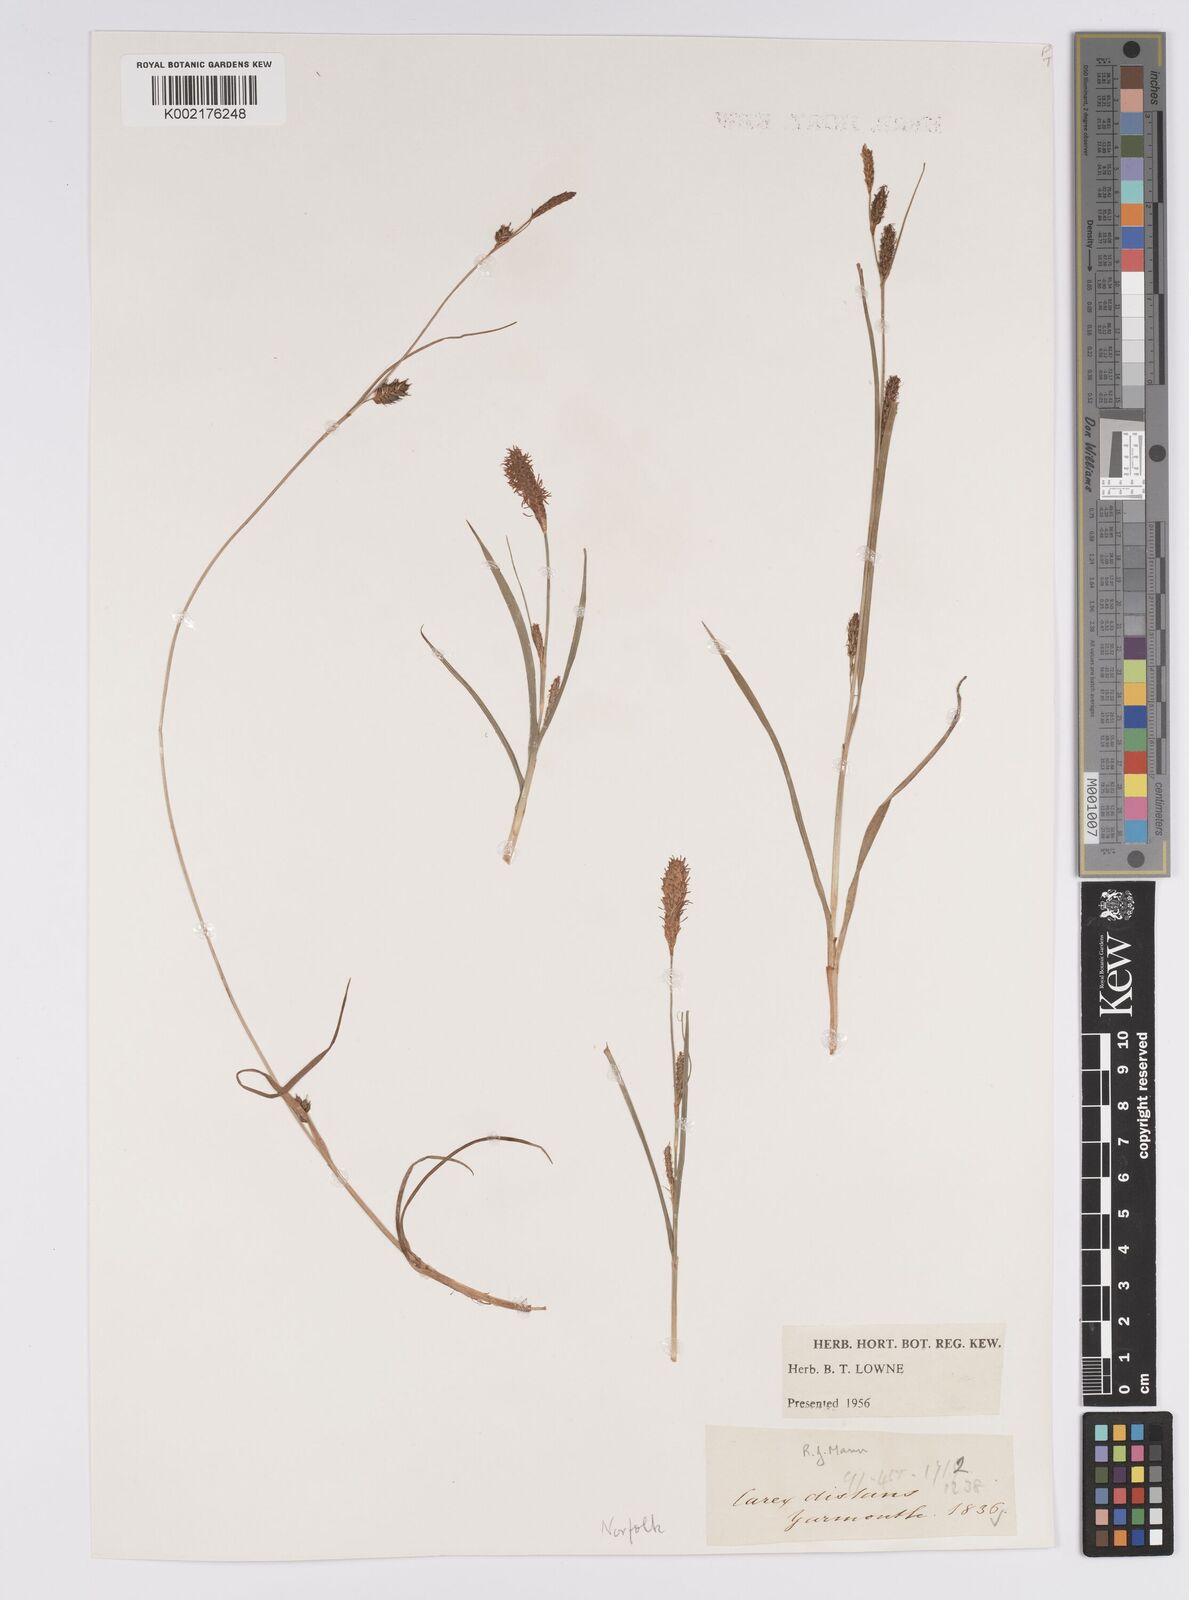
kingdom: Plantae
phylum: Tracheophyta
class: Liliopsida
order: Poales
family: Cyperaceae
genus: Carex
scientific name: Carex distans
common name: Distant sedge
